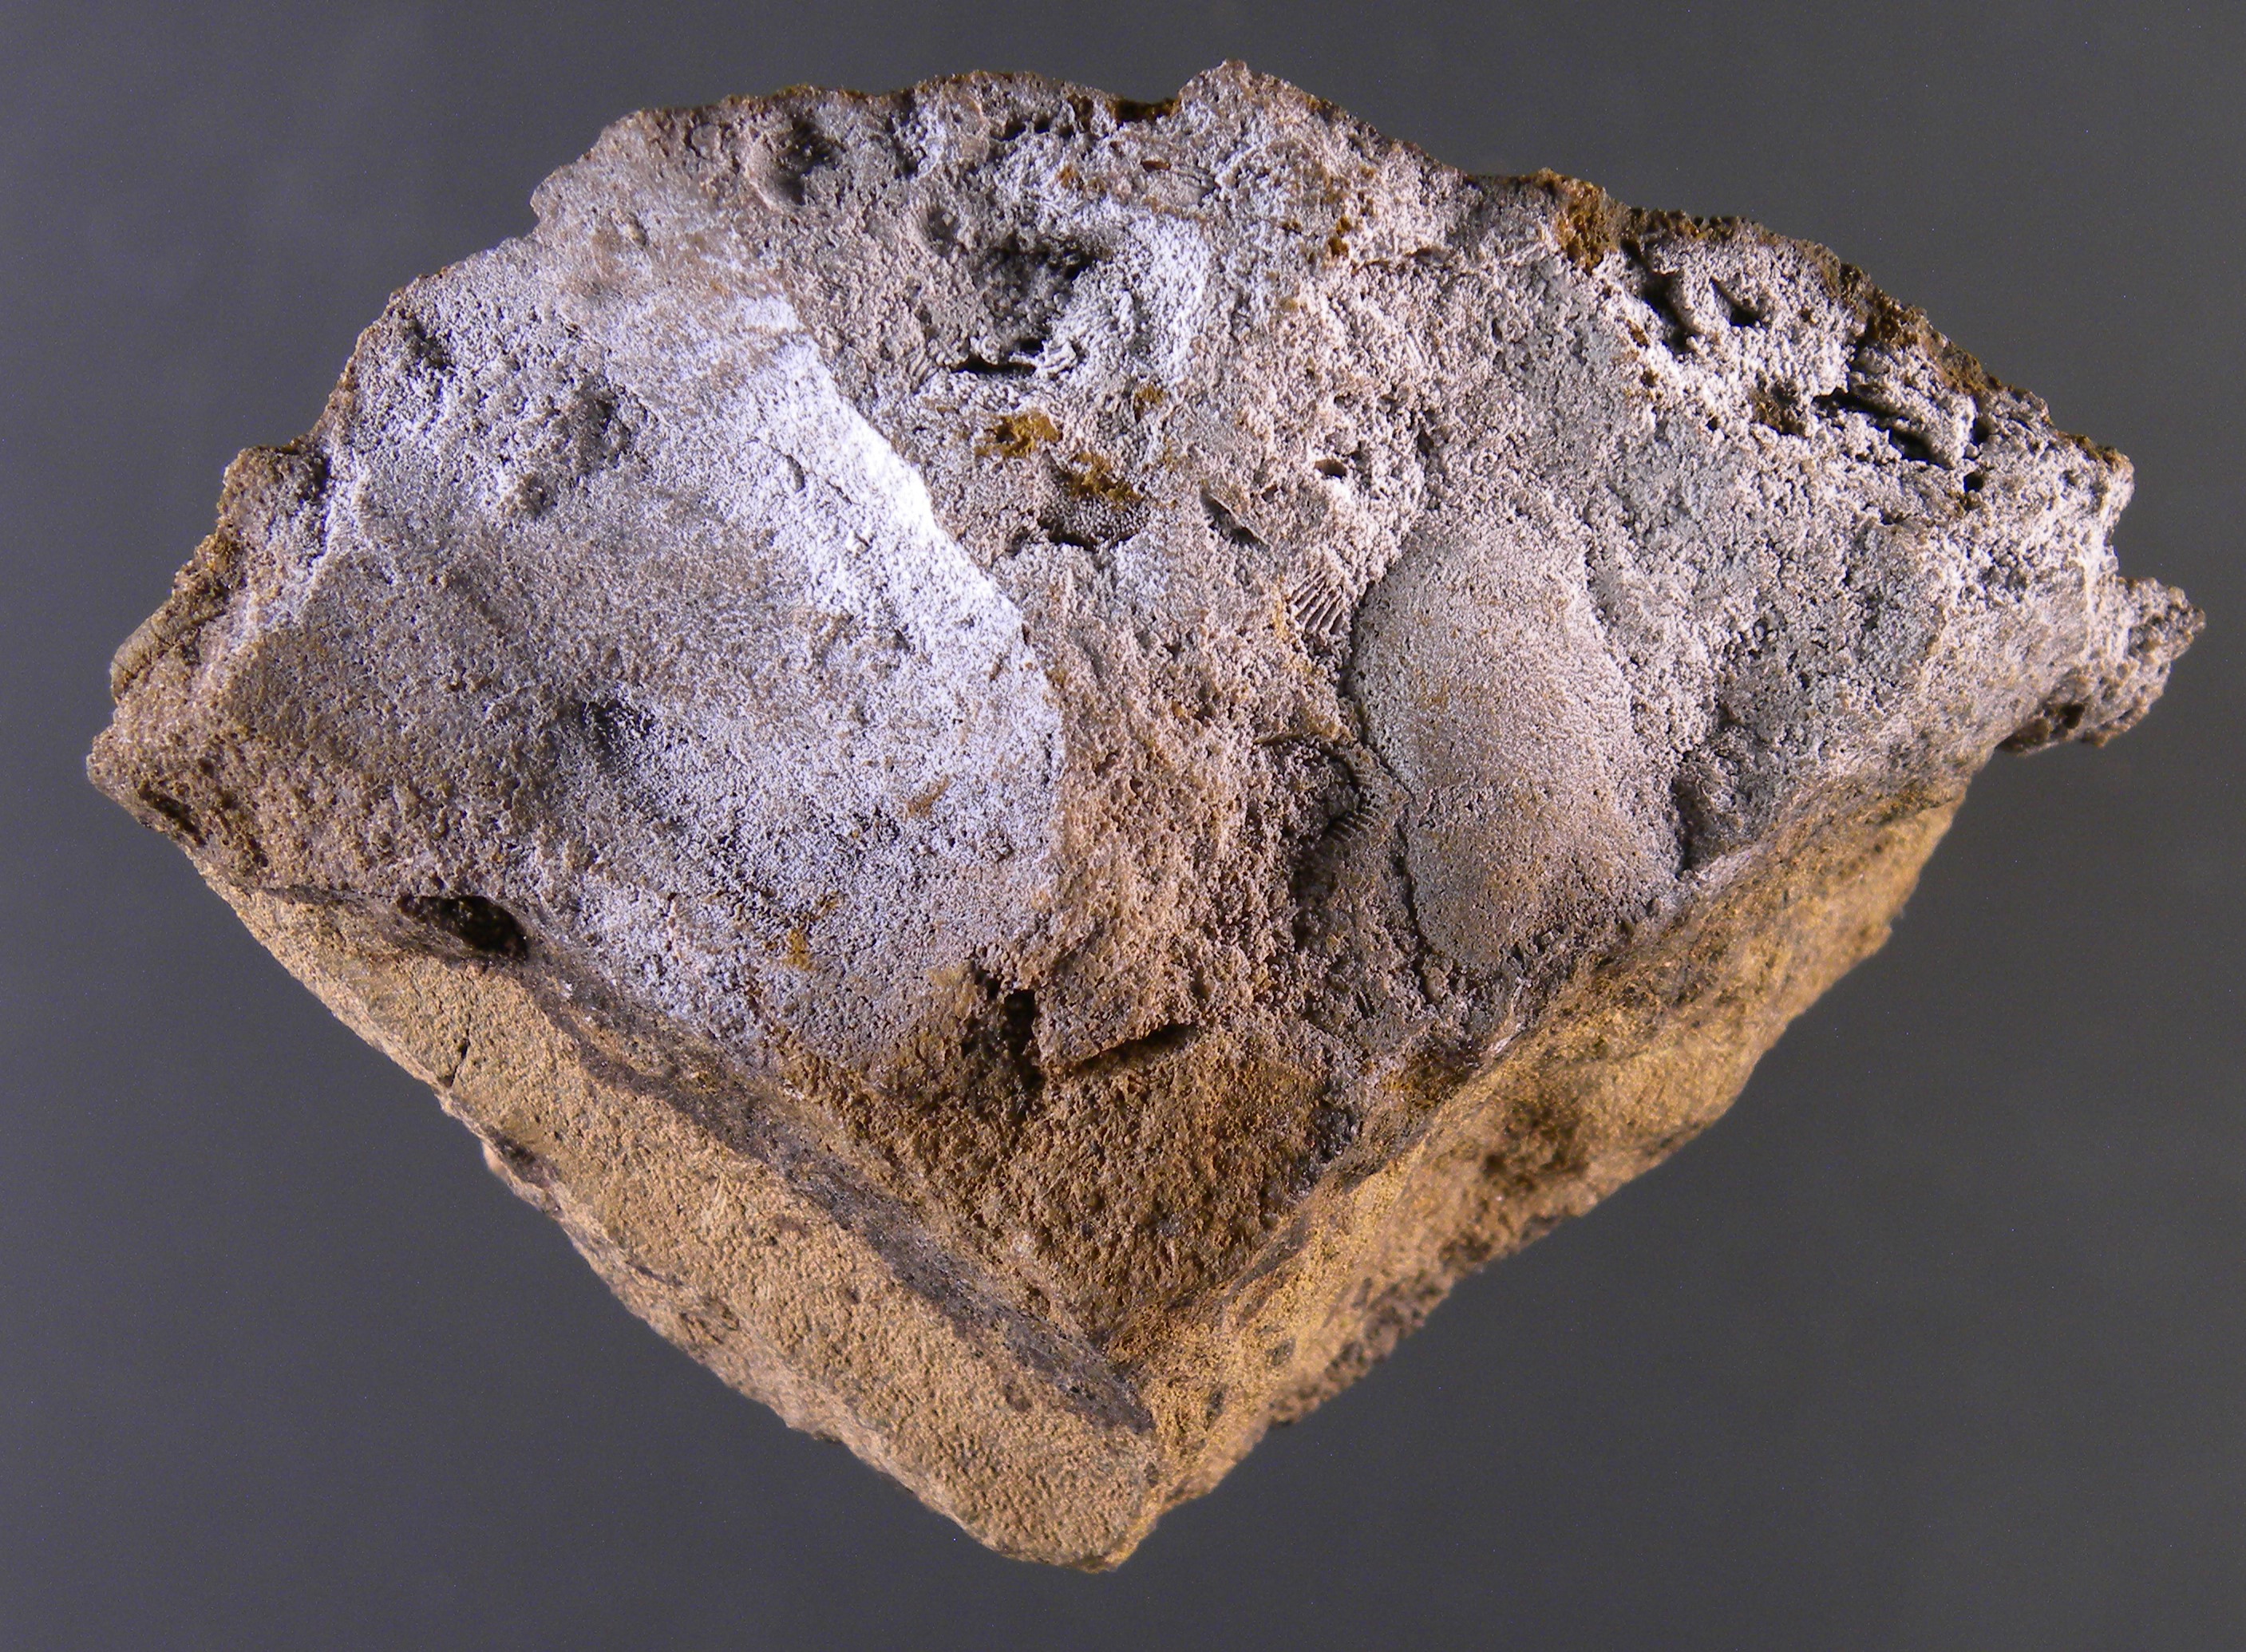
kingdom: Animalia
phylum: Mollusca
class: Cricoconarida
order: Tentaculitida
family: Tentaculitidae
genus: Tentaculites
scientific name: Tentaculites
